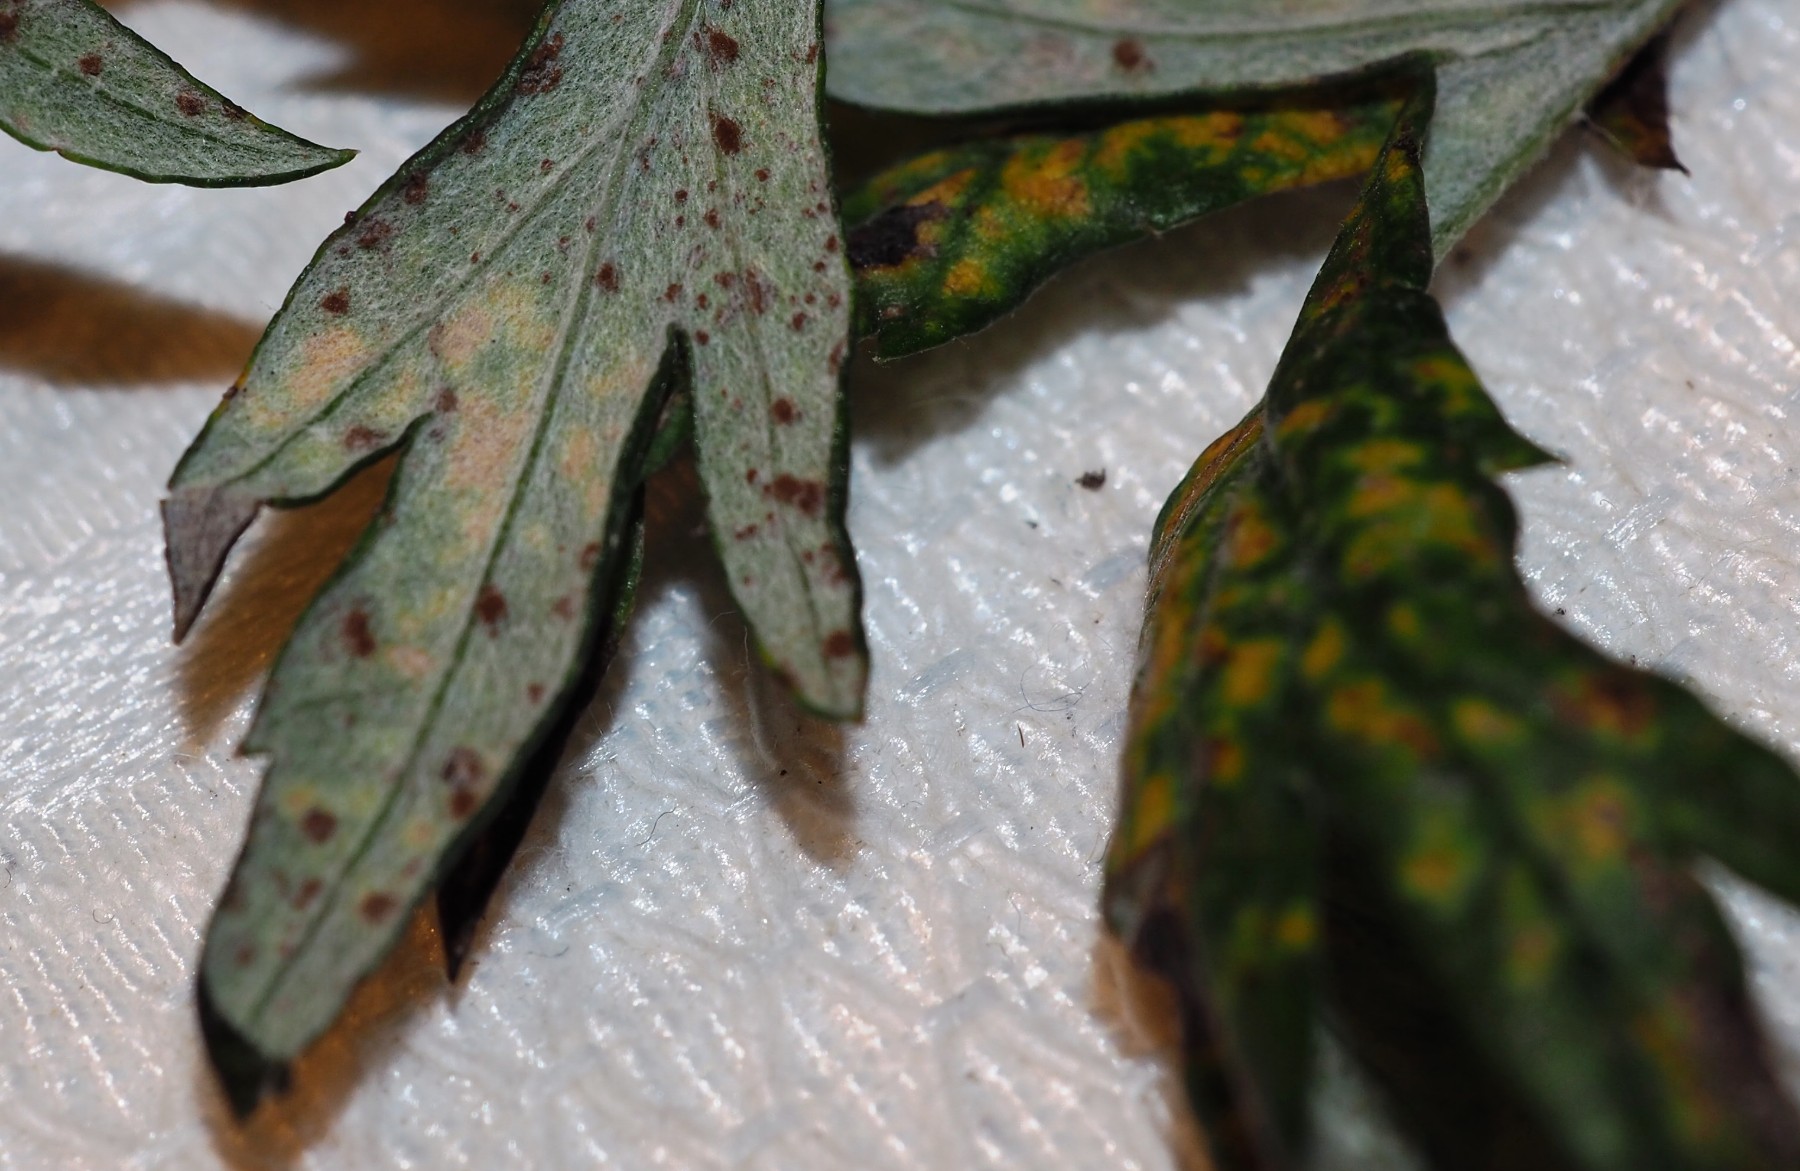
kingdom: Fungi
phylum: Basidiomycota
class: Pucciniomycetes
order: Pucciniales
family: Pucciniaceae
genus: Puccinia
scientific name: Puccinia tanaceti
